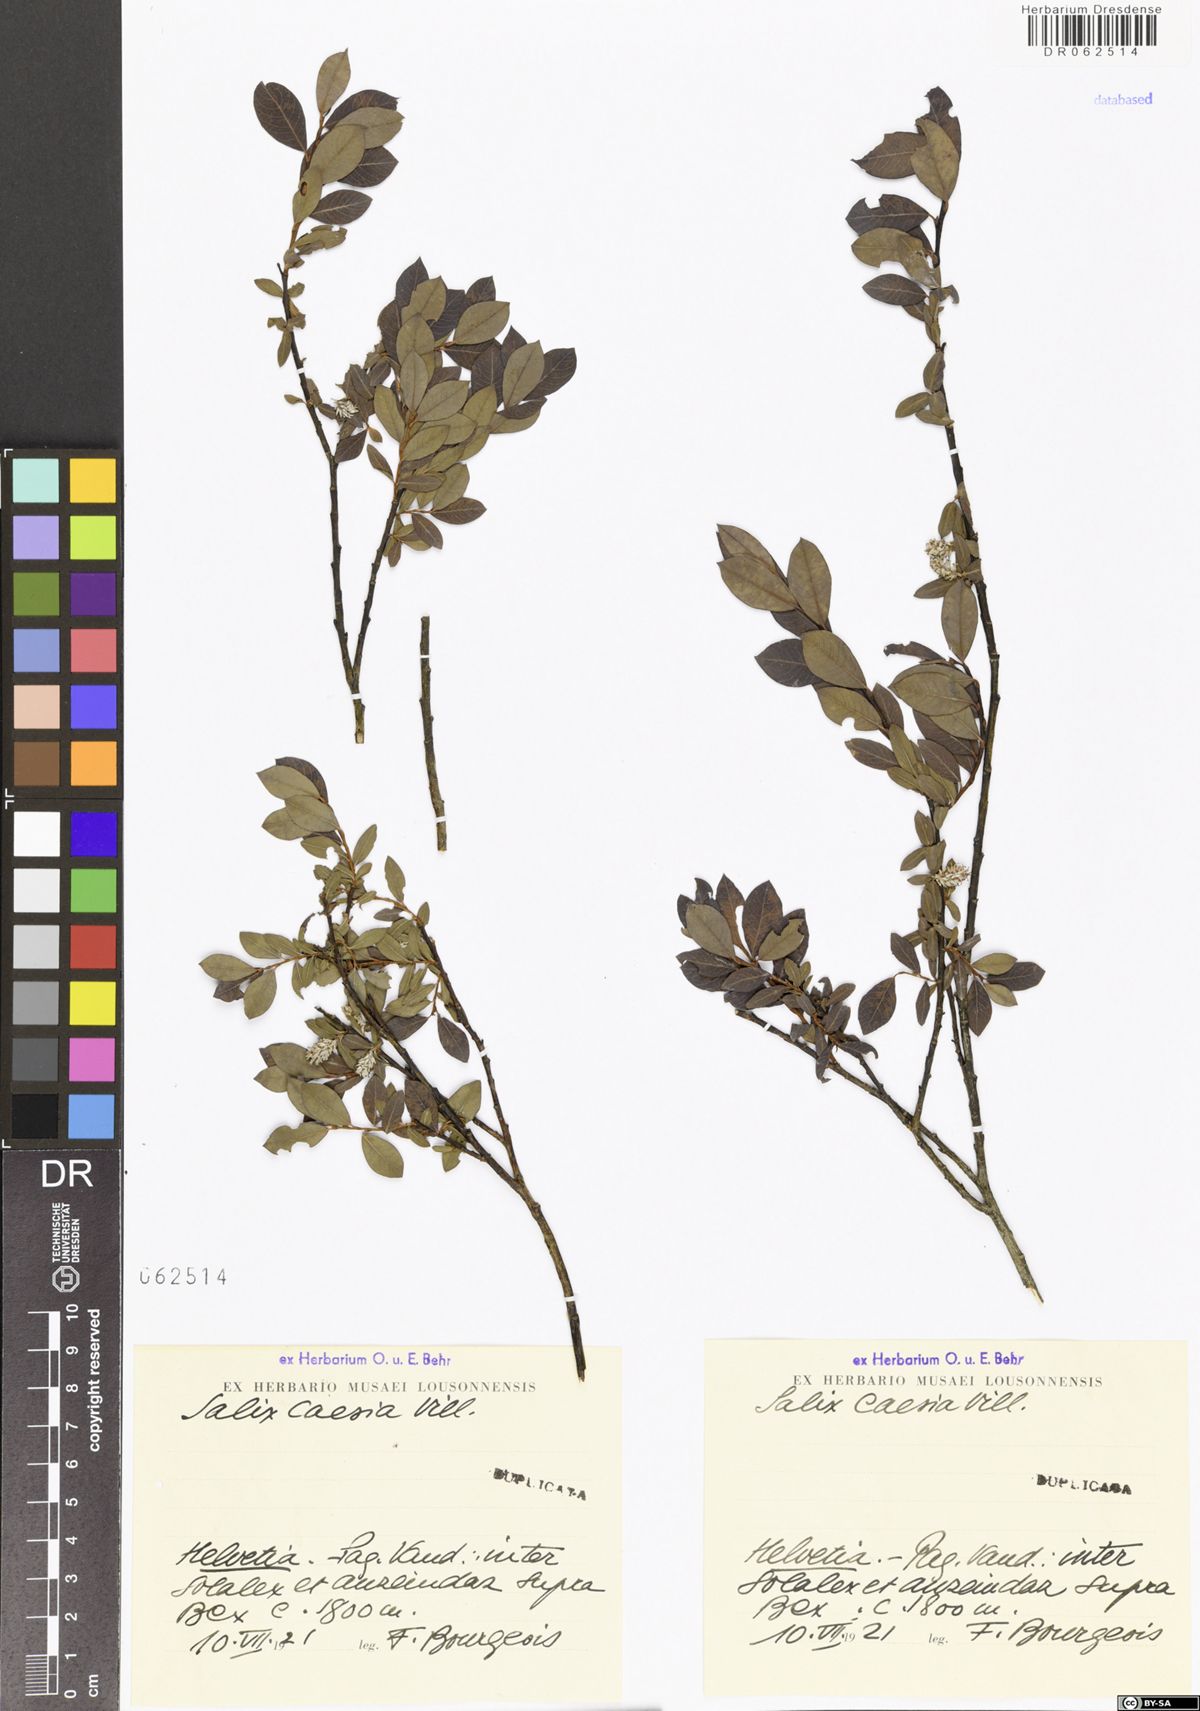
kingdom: Plantae
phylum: Tracheophyta
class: Magnoliopsida
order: Malpighiales
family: Salicaceae
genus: Salix
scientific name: Salix caesia
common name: Blue willow
